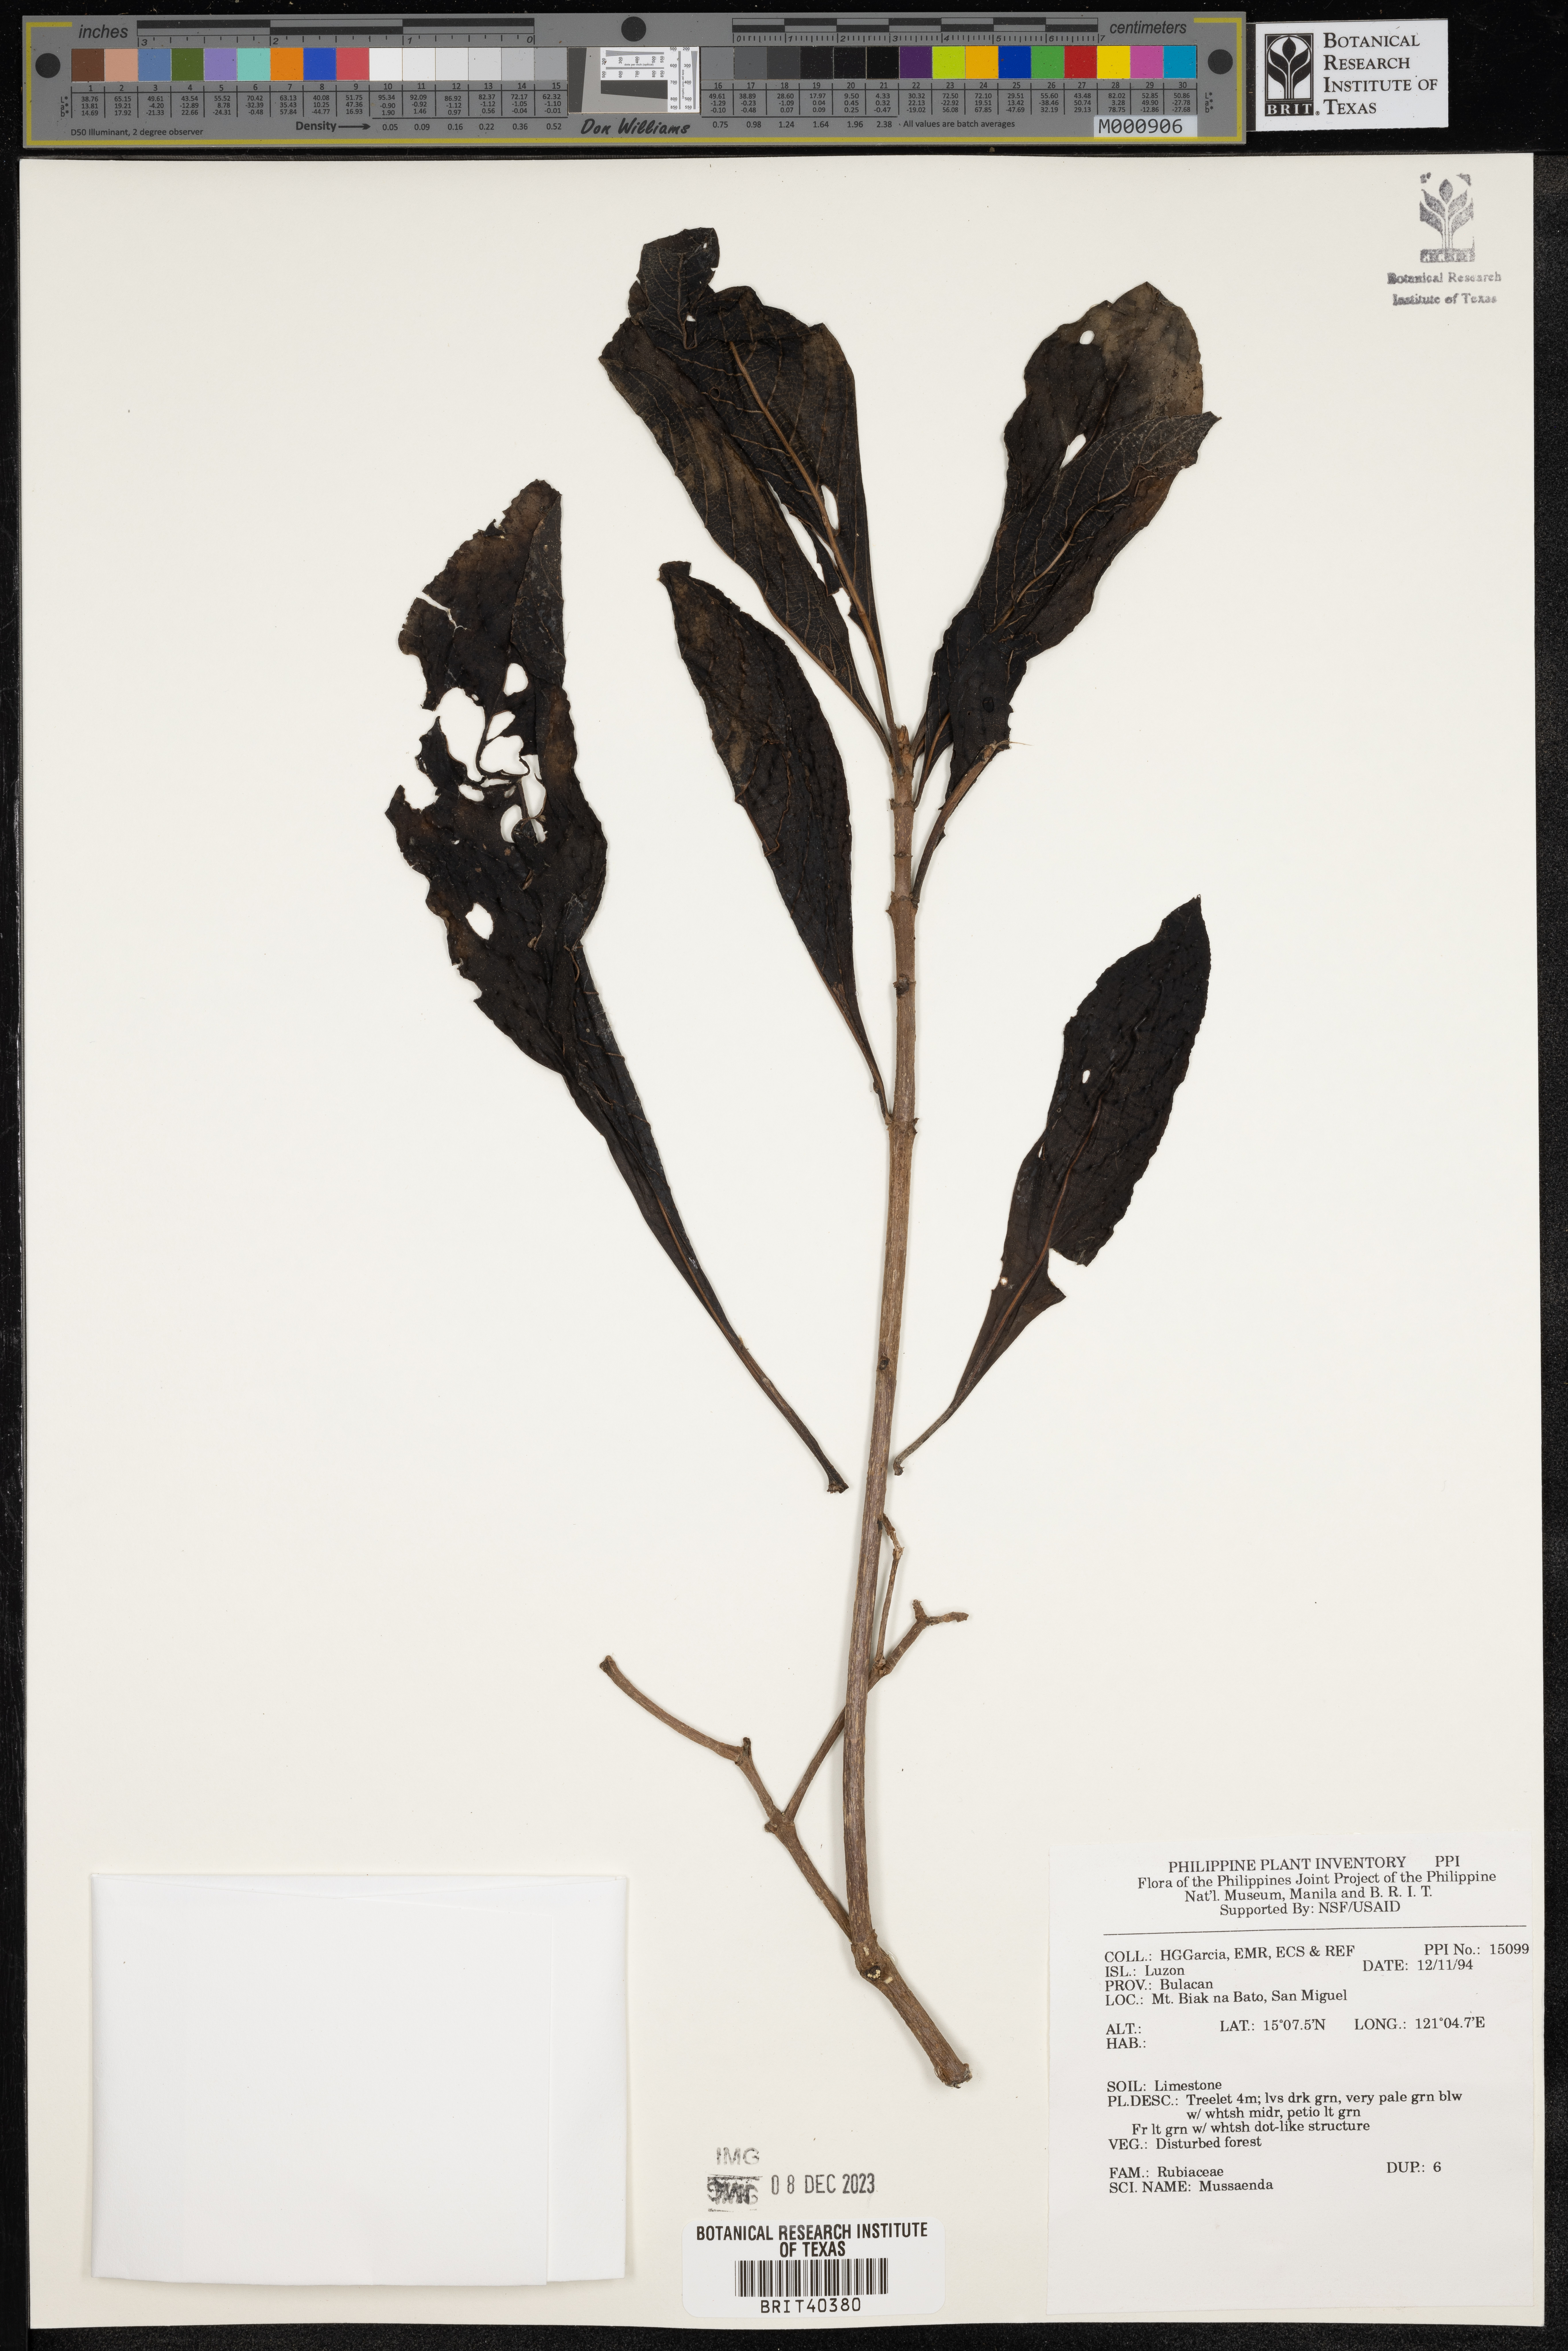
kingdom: Plantae
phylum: Tracheophyta
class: Magnoliopsida
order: Gentianales
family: Rubiaceae
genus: Mussaenda
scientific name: Mussaenda
